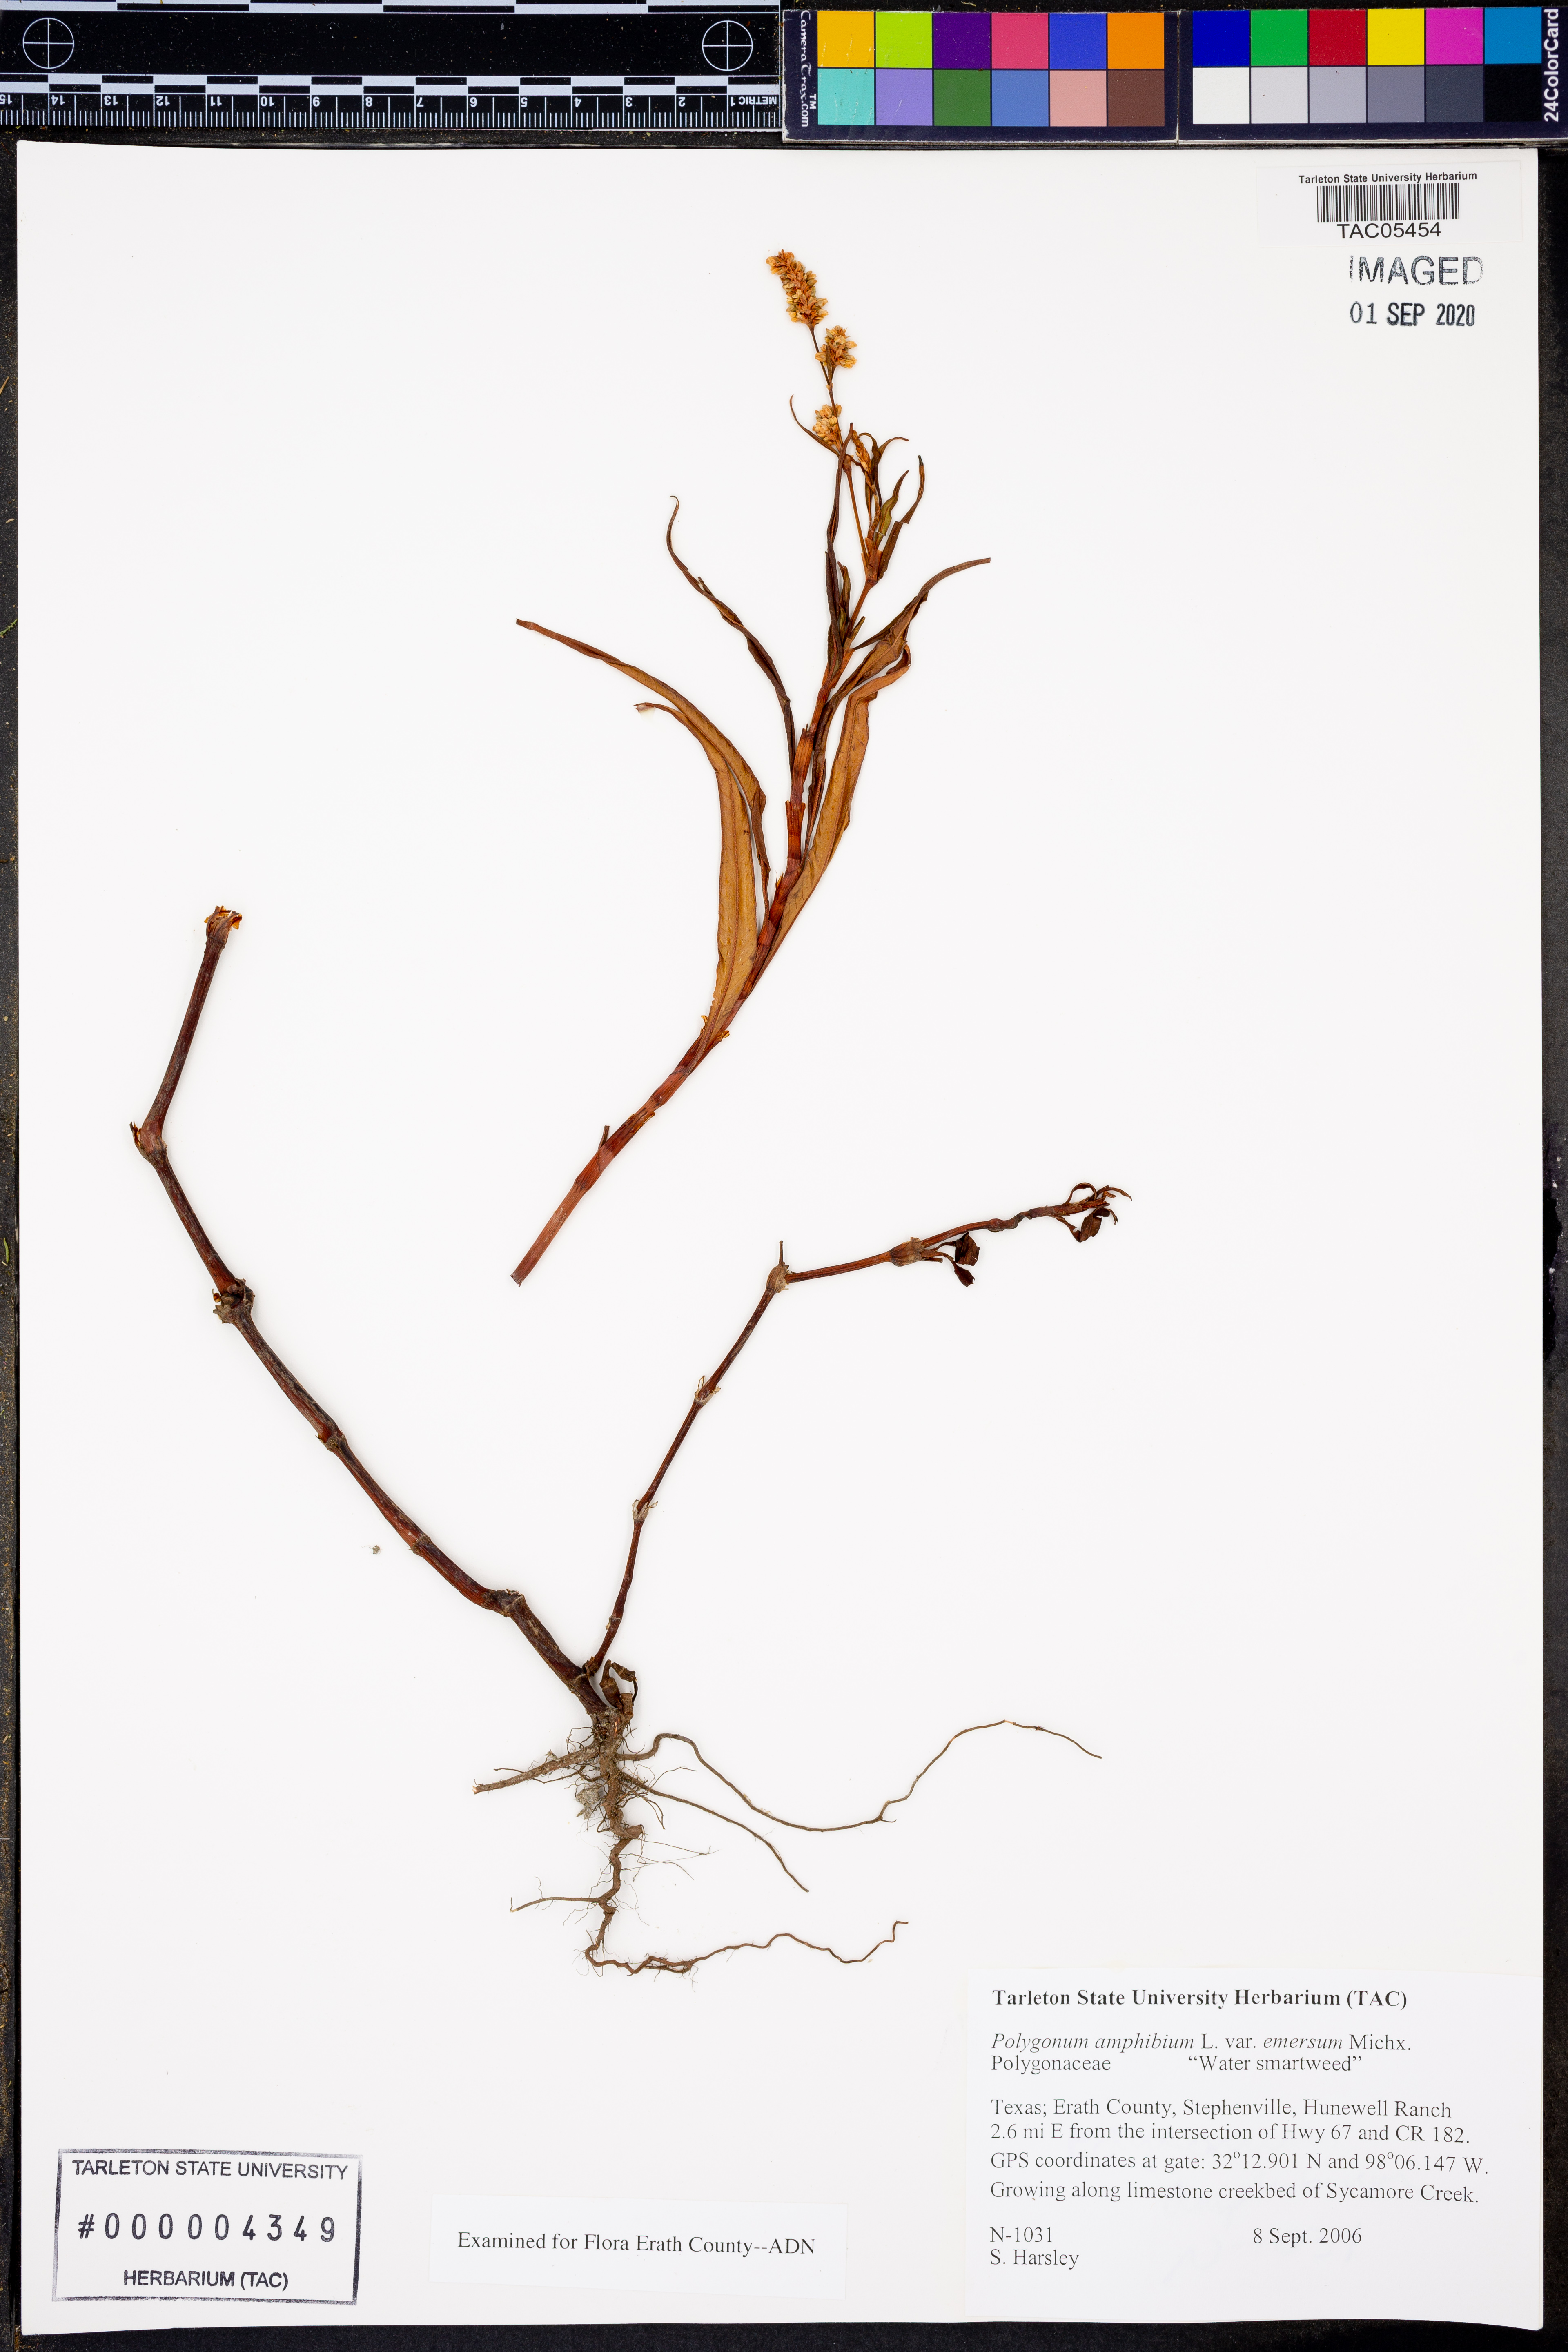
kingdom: Plantae
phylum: Tracheophyta
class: Magnoliopsida
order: Caryophyllales
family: Polygonaceae
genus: Persicaria
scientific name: Persicaria amphibia
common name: Amphibious bistort
